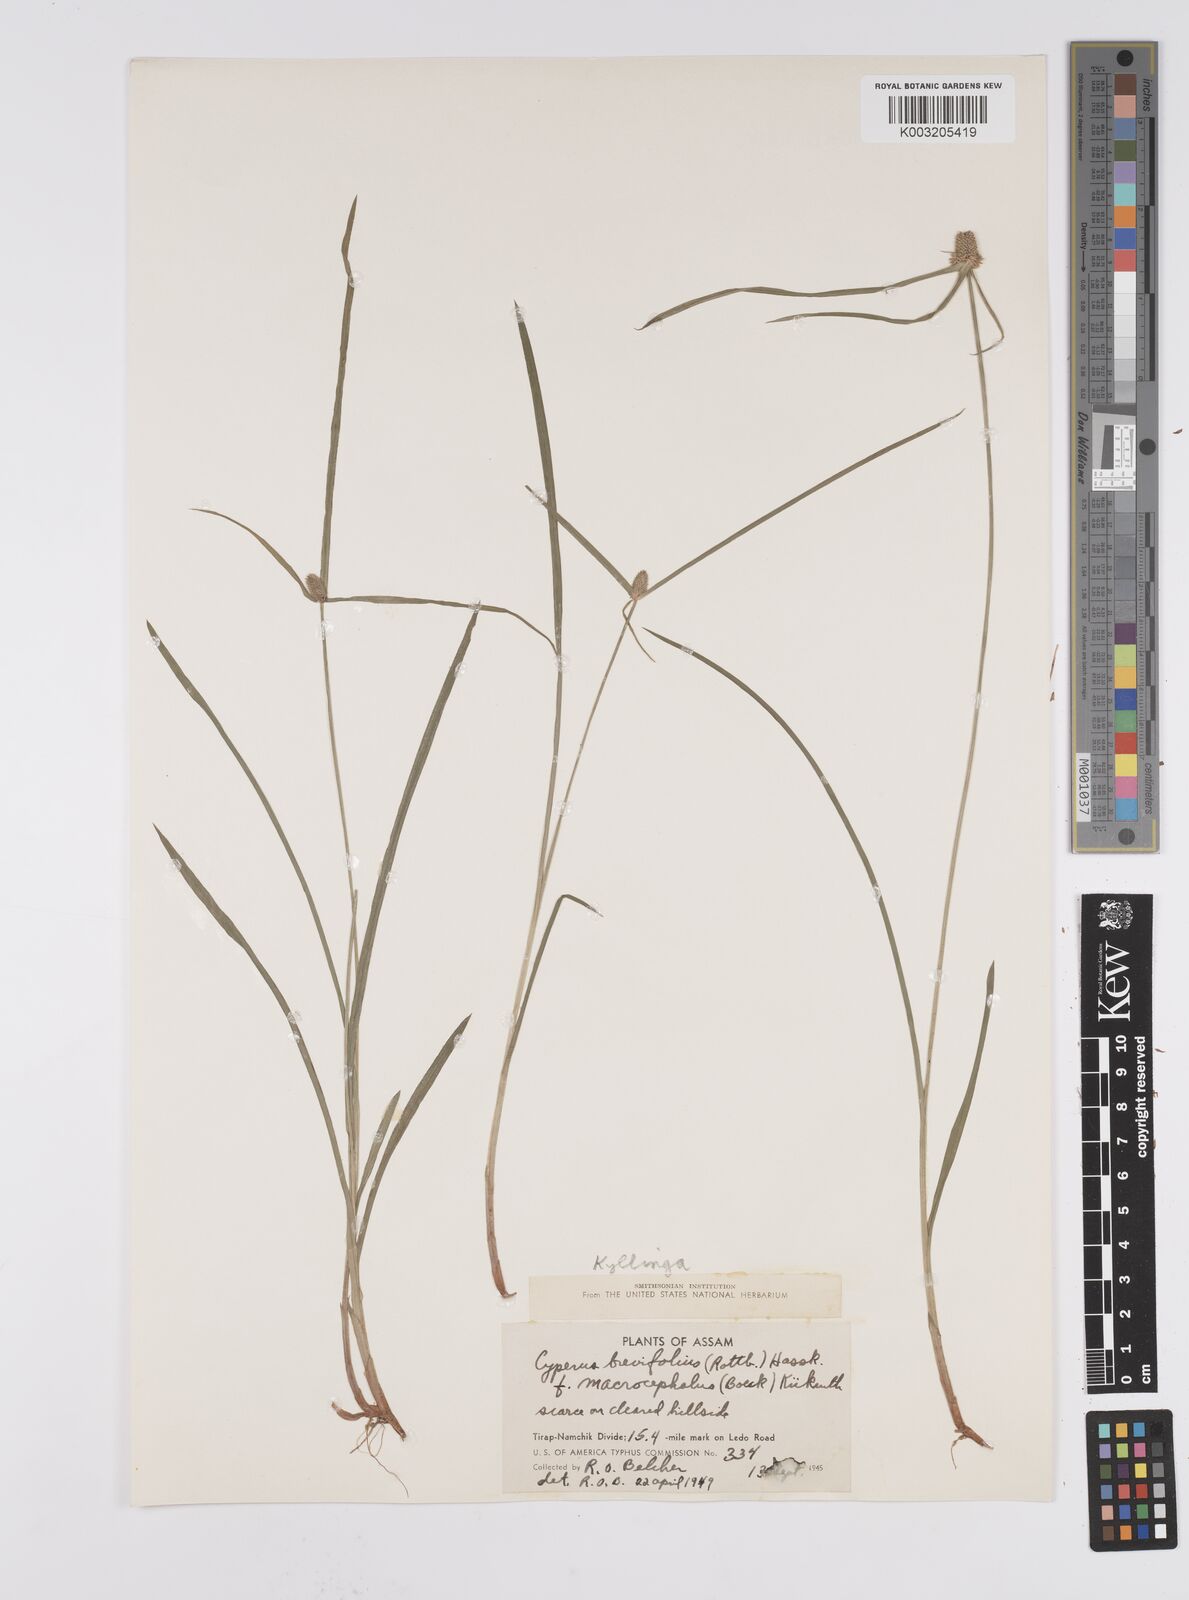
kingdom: Plantae
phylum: Tracheophyta
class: Liliopsida
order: Poales
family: Cyperaceae
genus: Cyperus
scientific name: Cyperus brevifolius
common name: Globe kyllinga
